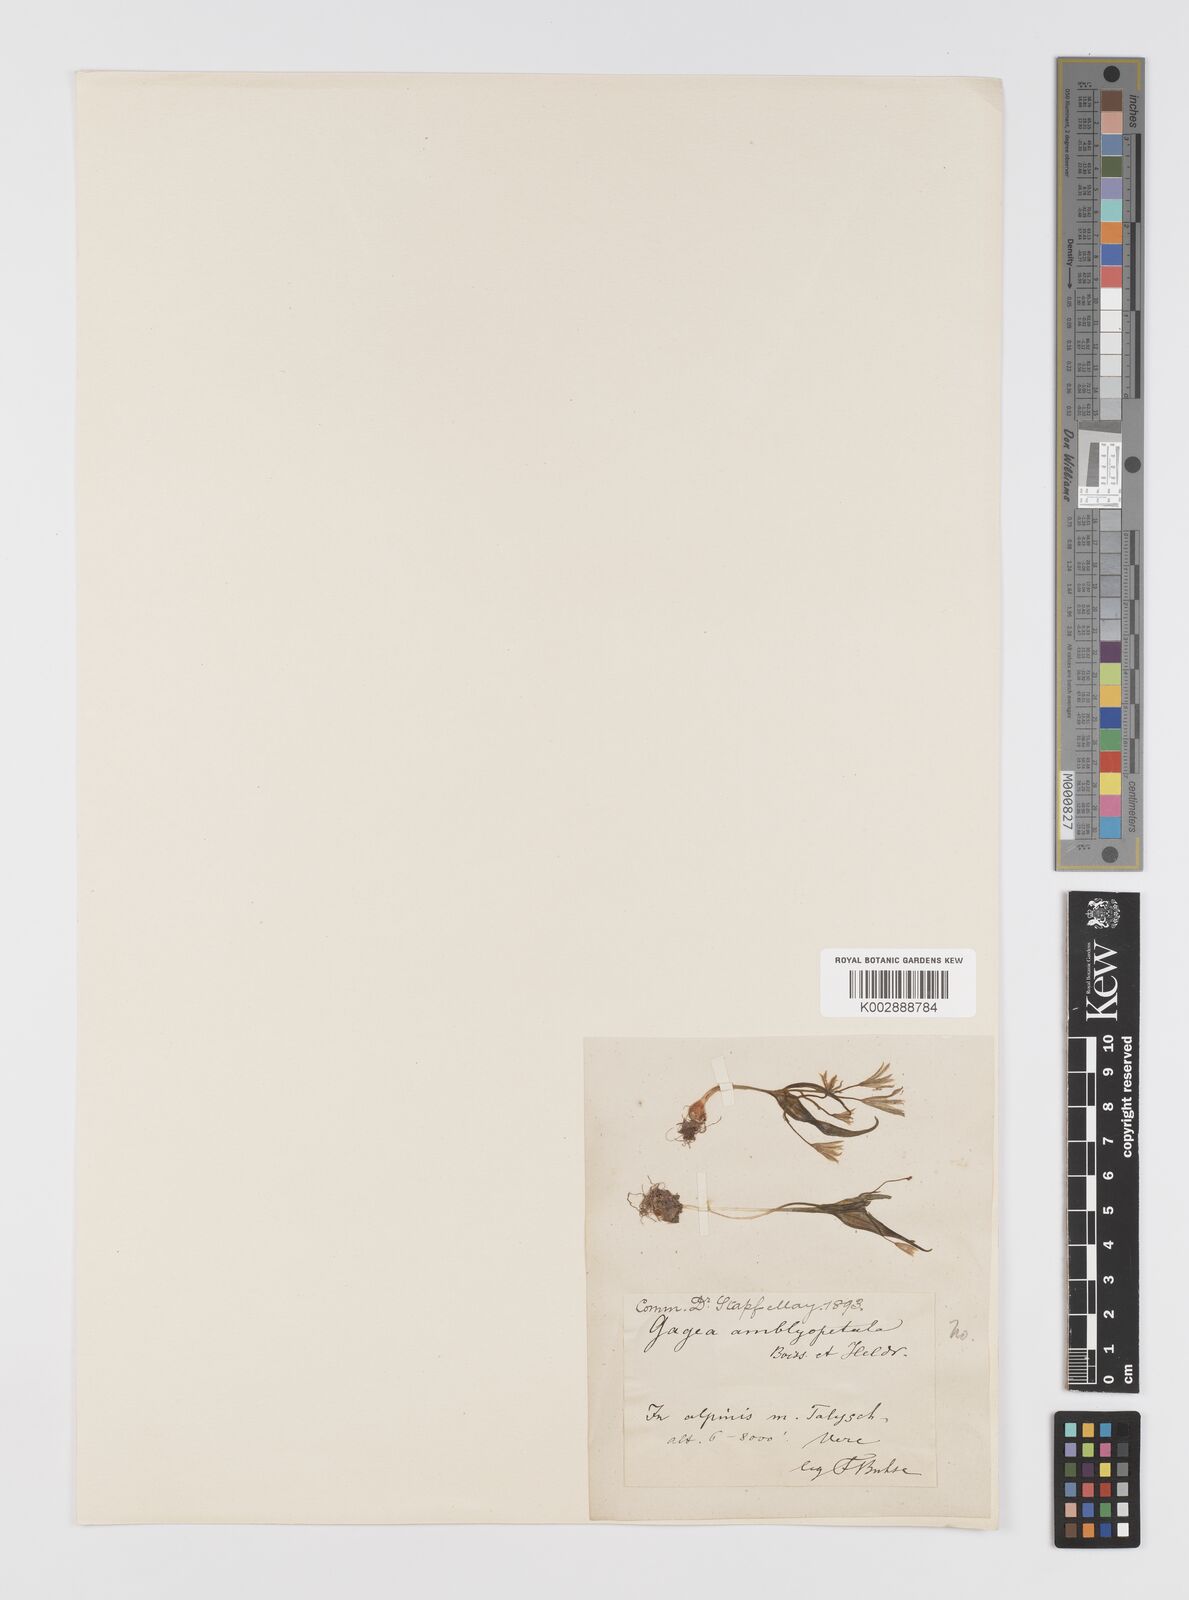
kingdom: Plantae
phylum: Tracheophyta
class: Liliopsida
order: Liliales
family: Liliaceae
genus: Gagea
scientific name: Gagea longifolia
